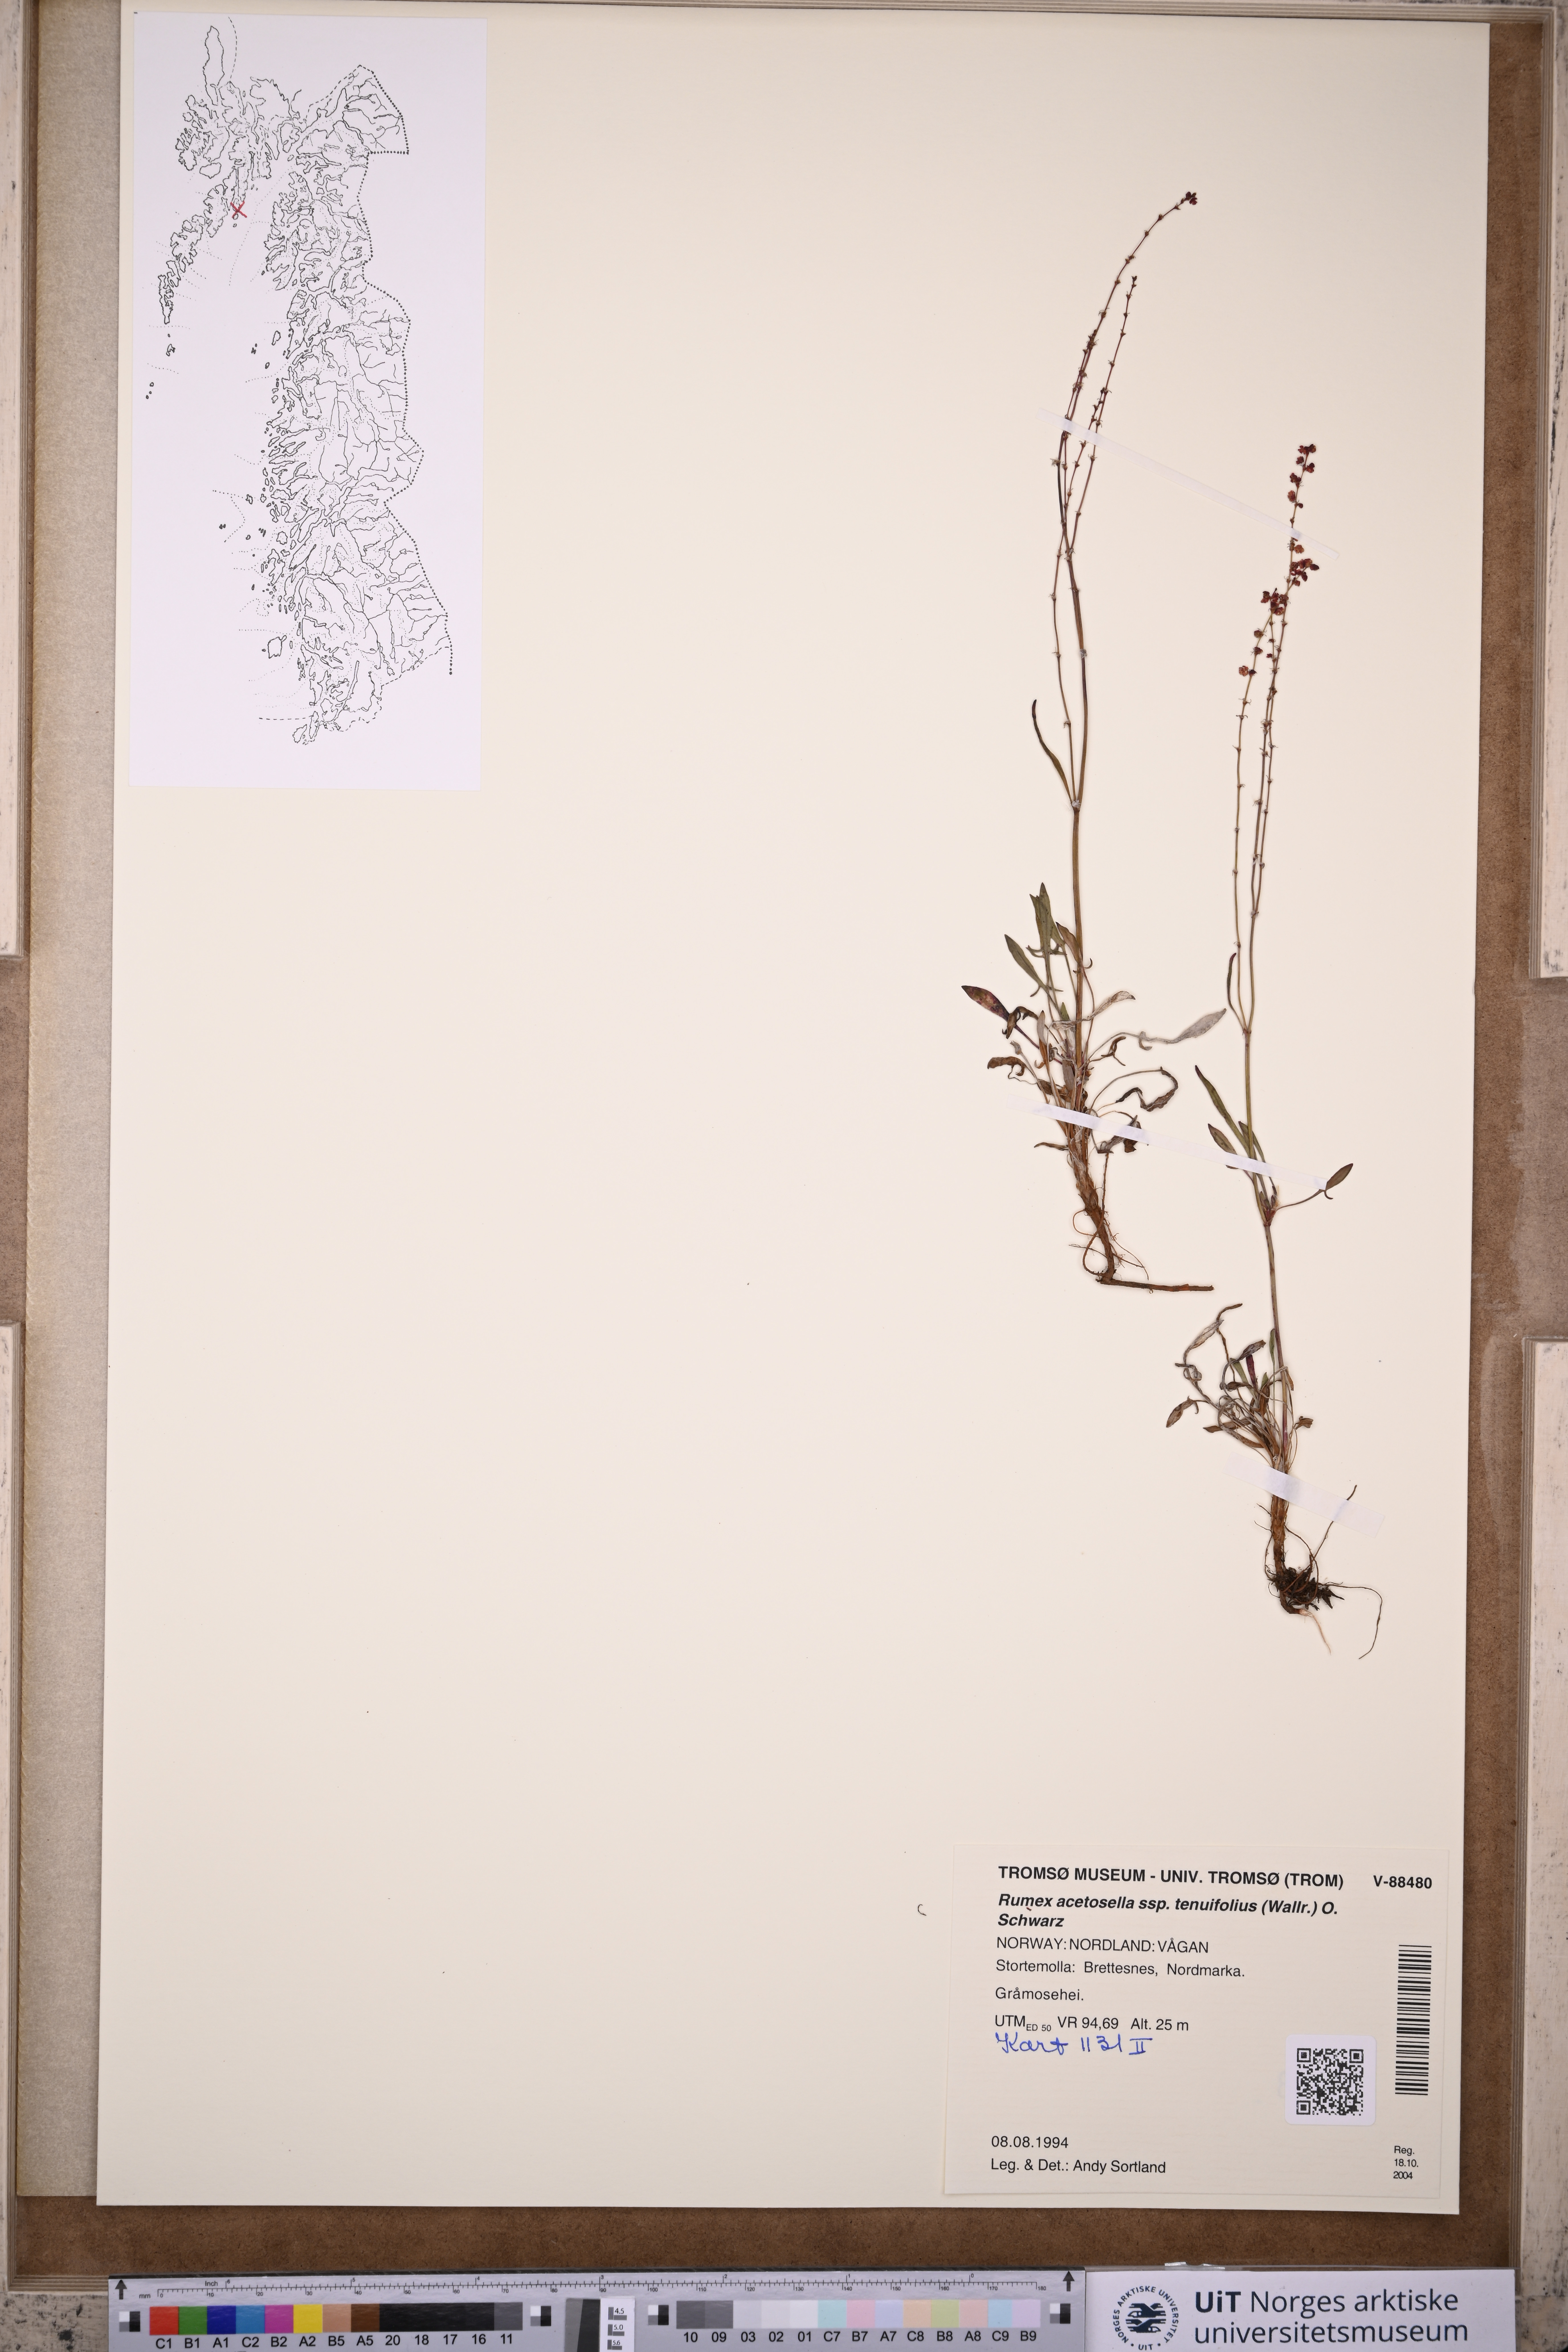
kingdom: Plantae
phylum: Tracheophyta
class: Magnoliopsida
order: Caryophyllales
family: Polygonaceae
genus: Rumex
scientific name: Rumex acetosella
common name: Common sheep sorrel
